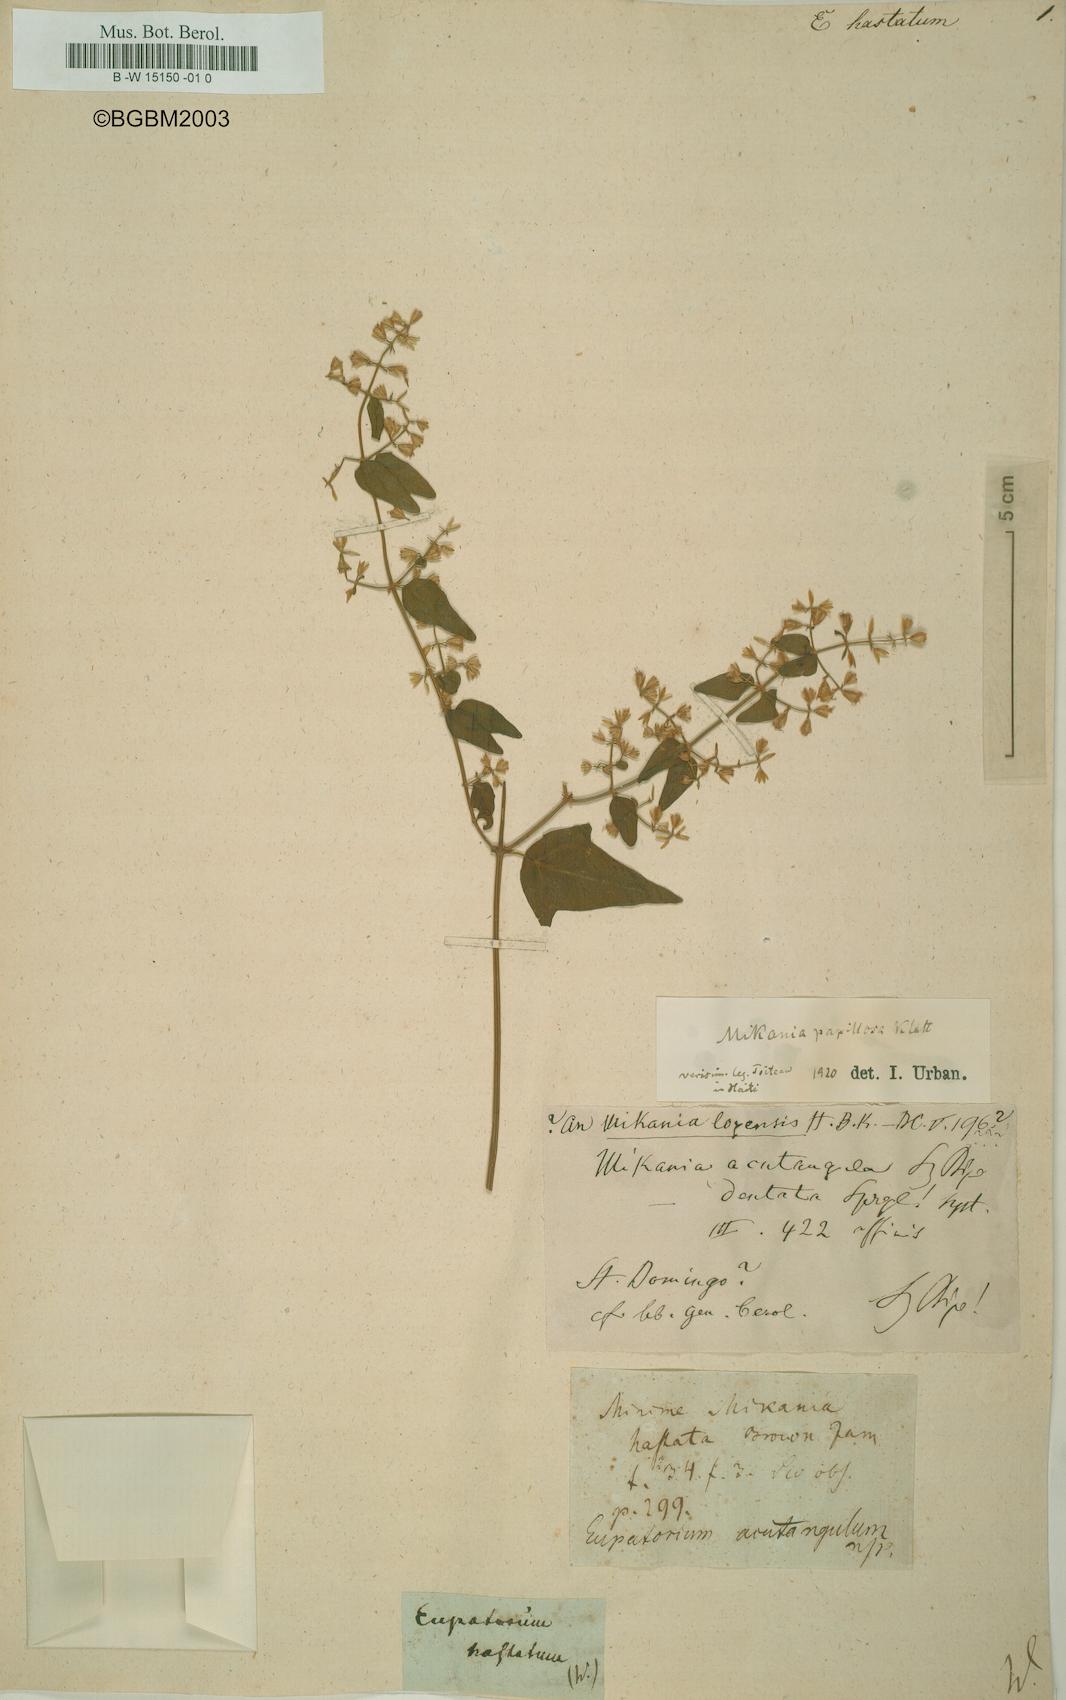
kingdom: Plantae
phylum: Tracheophyta
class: Magnoliopsida
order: Asterales
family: Asteraceae
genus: Mikania
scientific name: Mikania hastata
